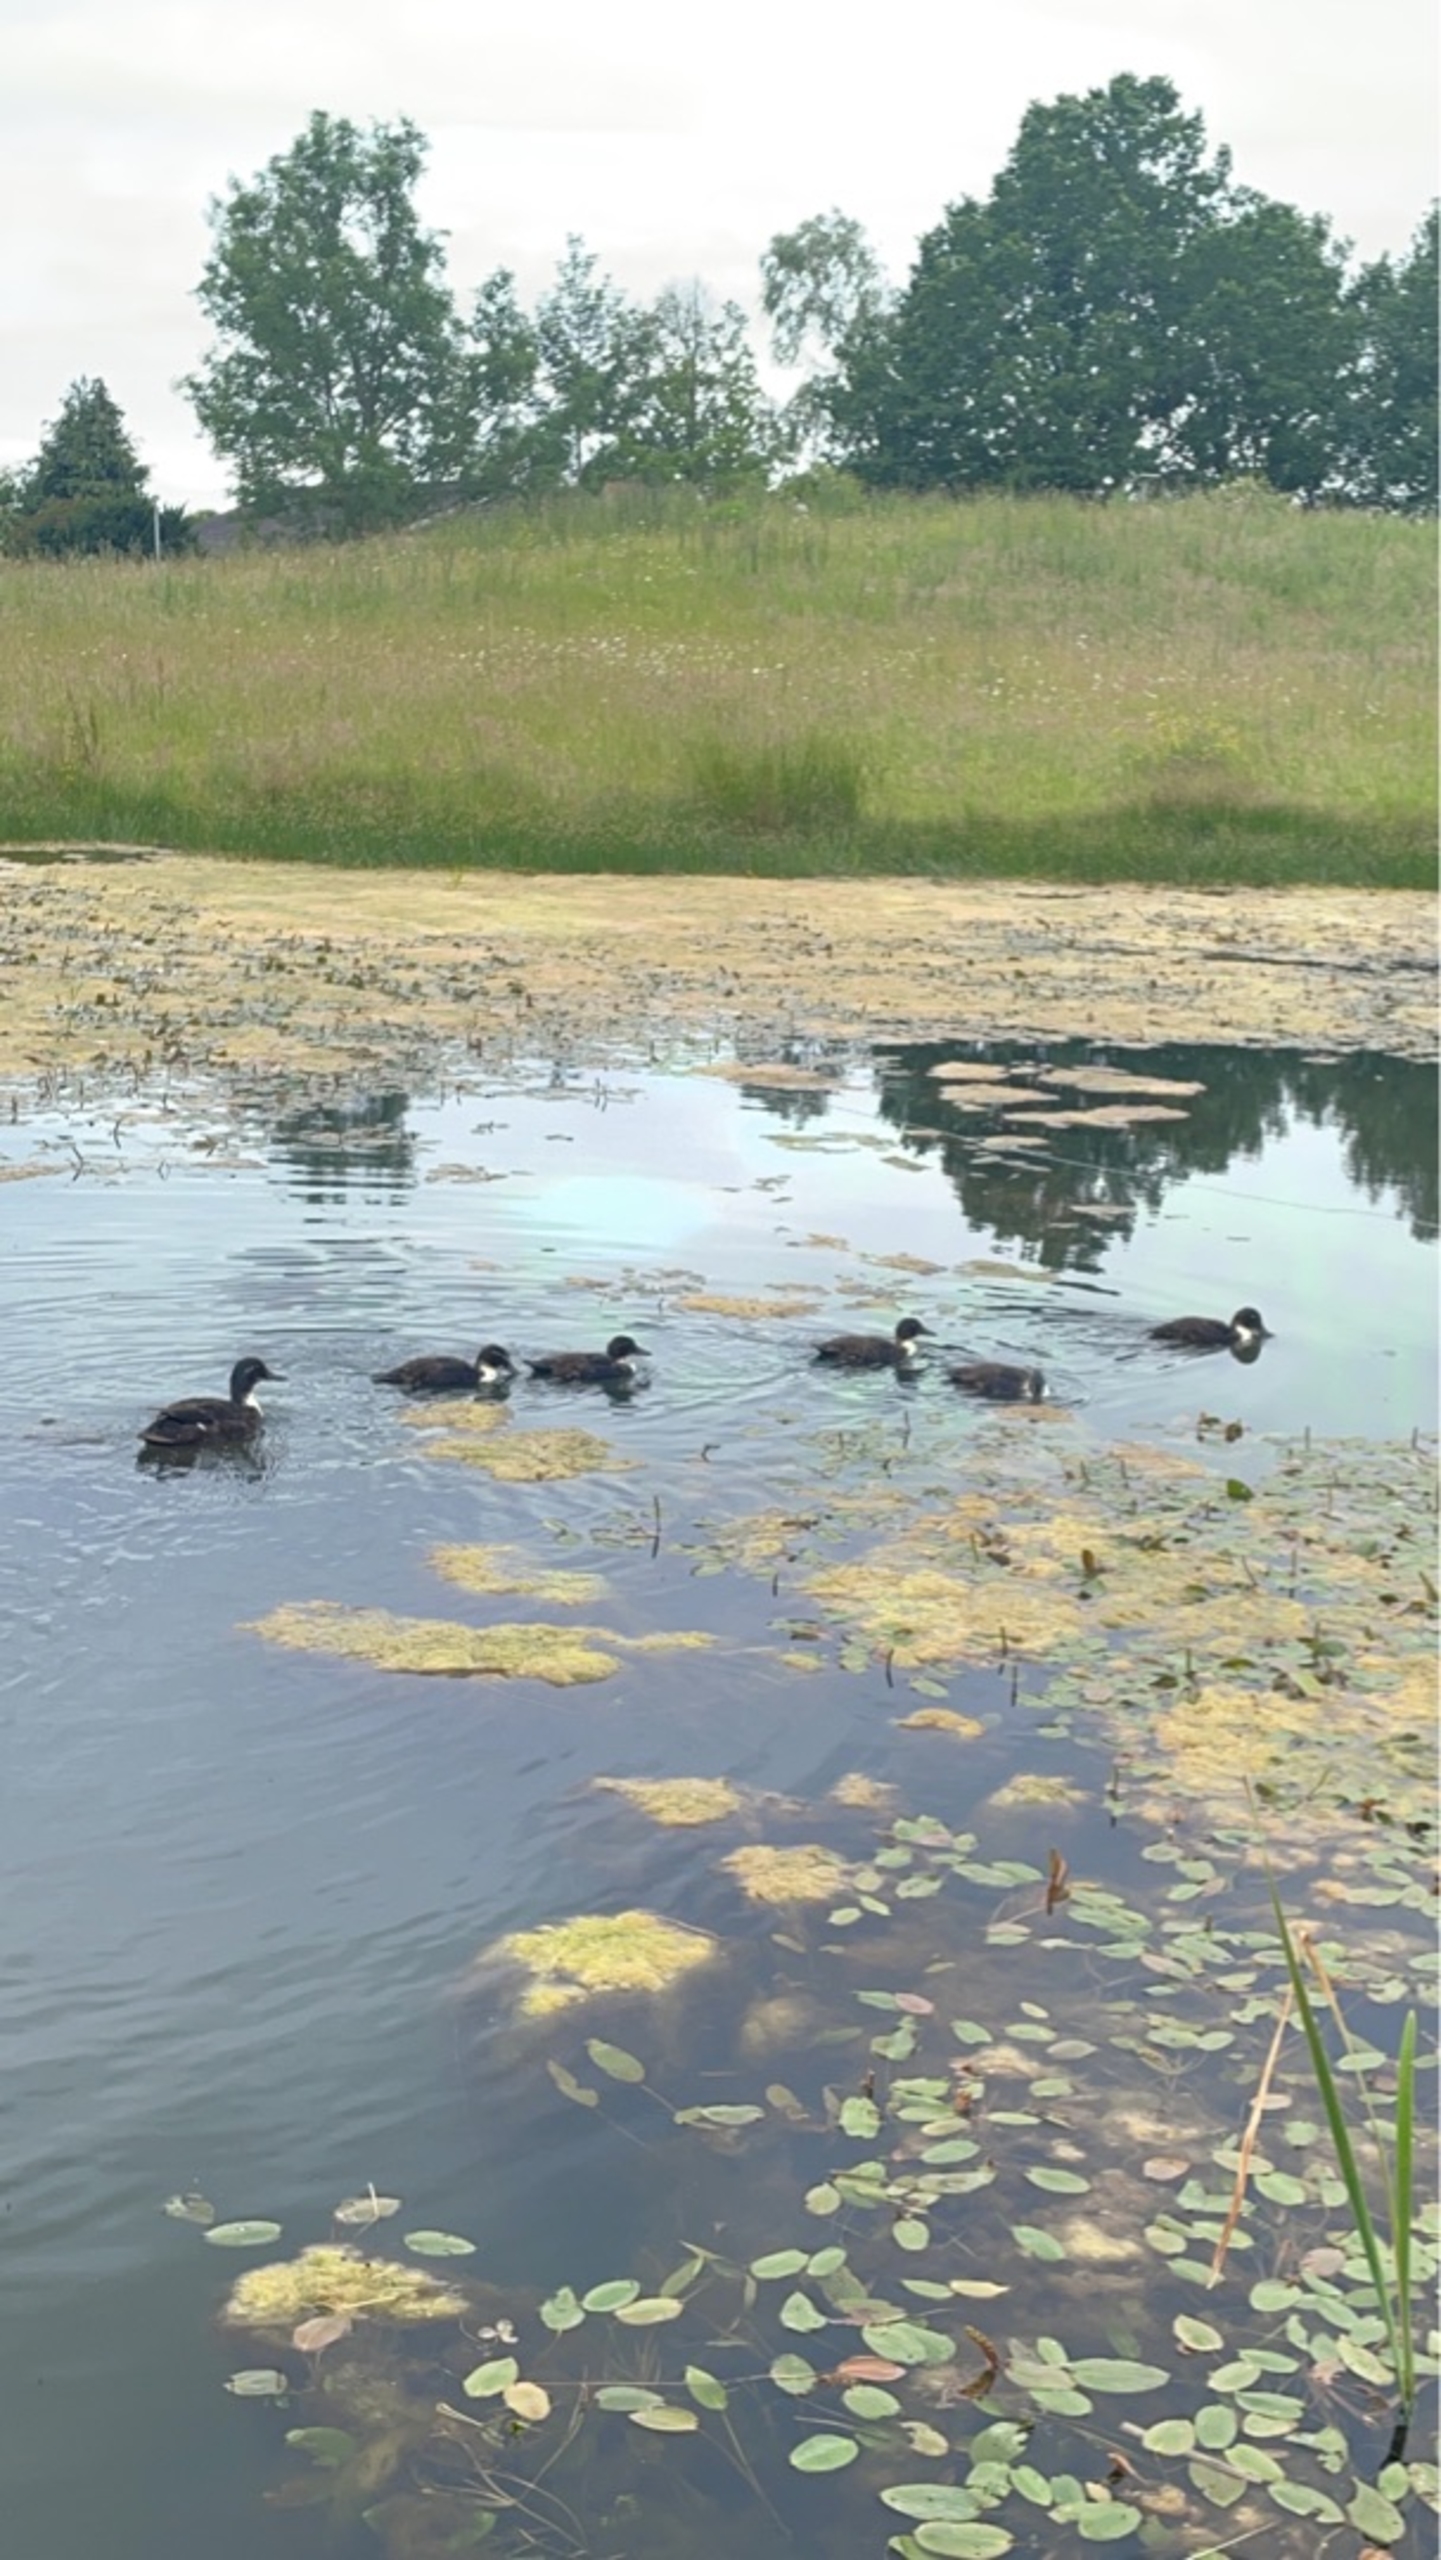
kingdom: Animalia
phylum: Chordata
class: Aves
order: Anseriformes
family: Anatidae
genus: Anas
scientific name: Anas platyrhynchos
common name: Gråand
